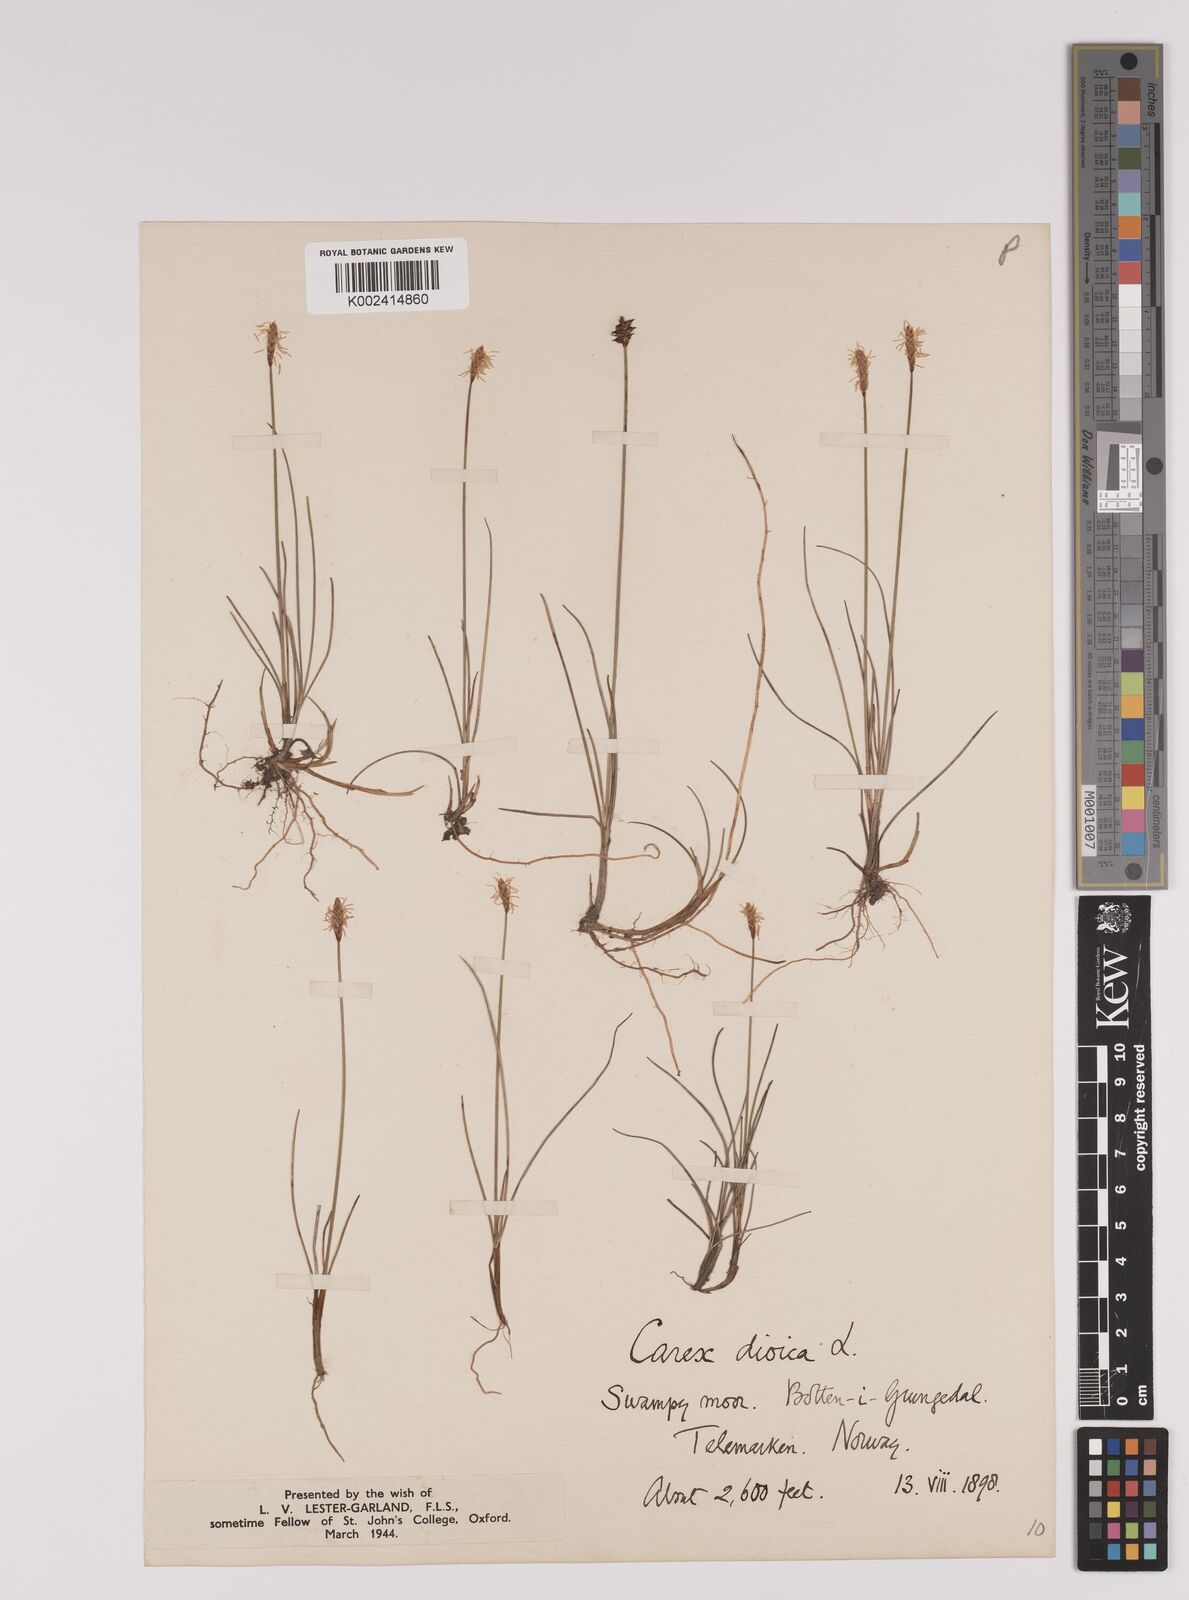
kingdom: Plantae
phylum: Tracheophyta
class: Liliopsida
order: Poales
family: Cyperaceae
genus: Carex
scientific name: Carex dioica
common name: Dioecious sedge
